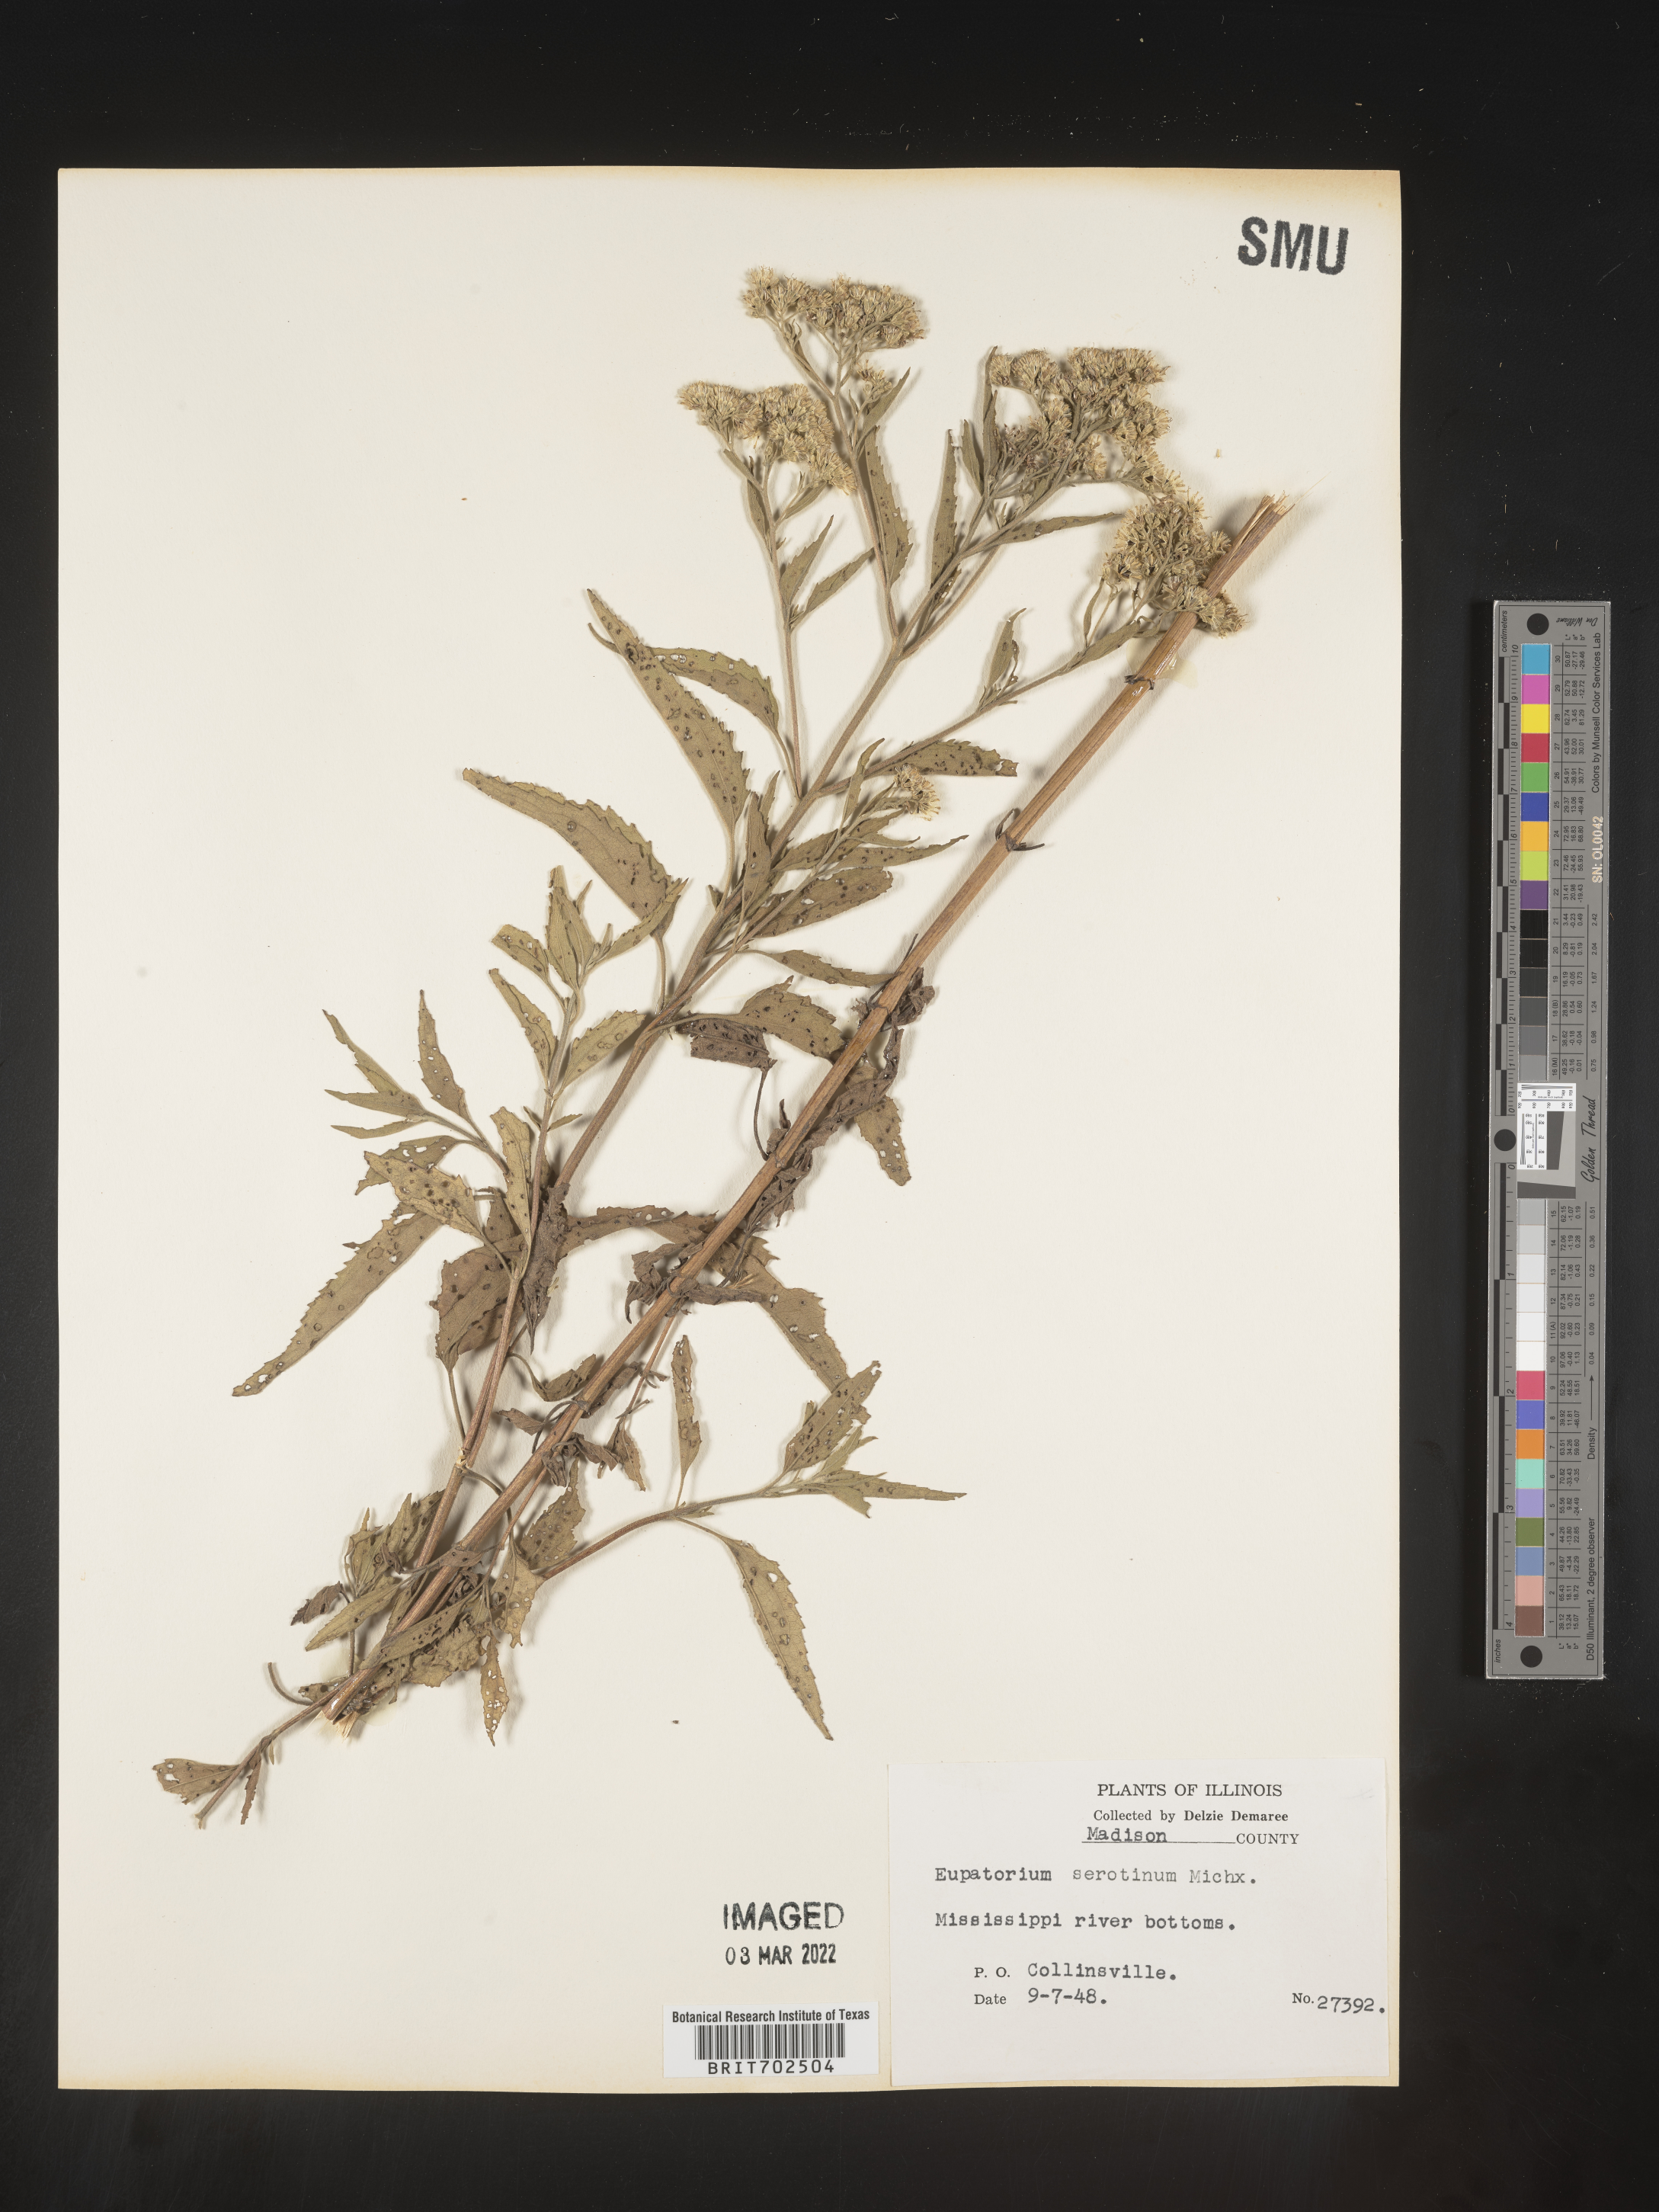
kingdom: Plantae
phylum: Tracheophyta
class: Magnoliopsida
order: Asterales
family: Asteraceae
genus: Eupatorium
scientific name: Eupatorium serotinum
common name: Late boneset
